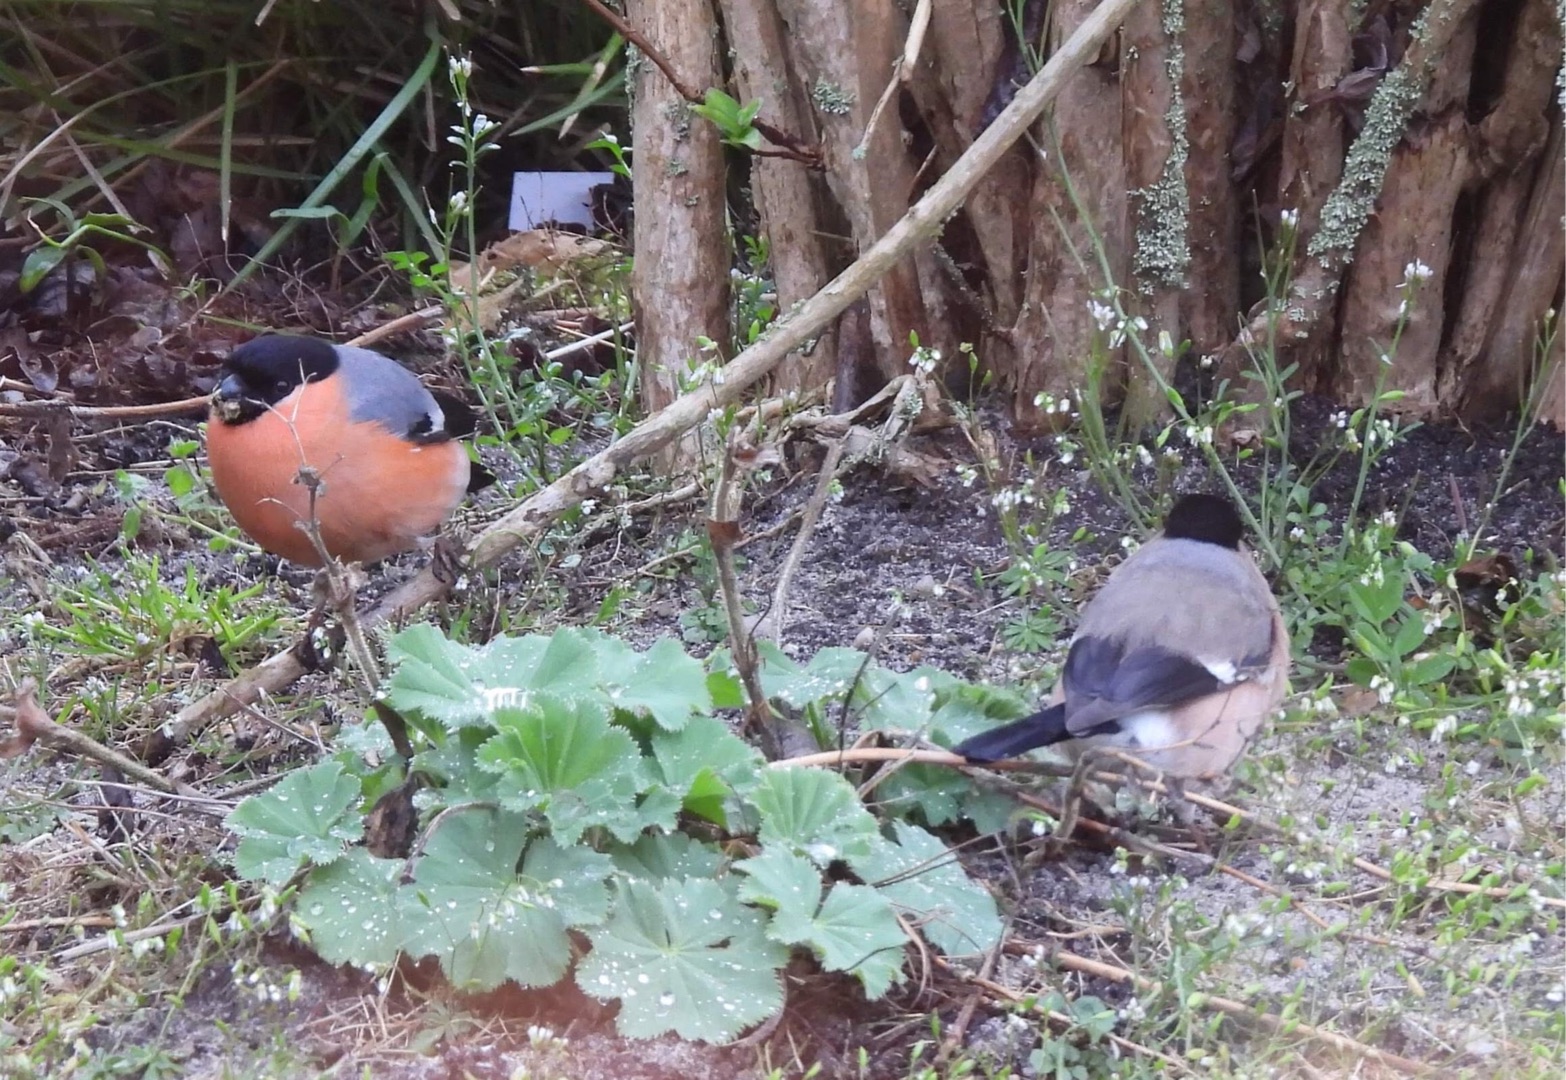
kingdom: Animalia
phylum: Chordata
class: Aves
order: Passeriformes
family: Fringillidae
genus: Pyrrhula
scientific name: Pyrrhula pyrrhula
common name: Dompap
